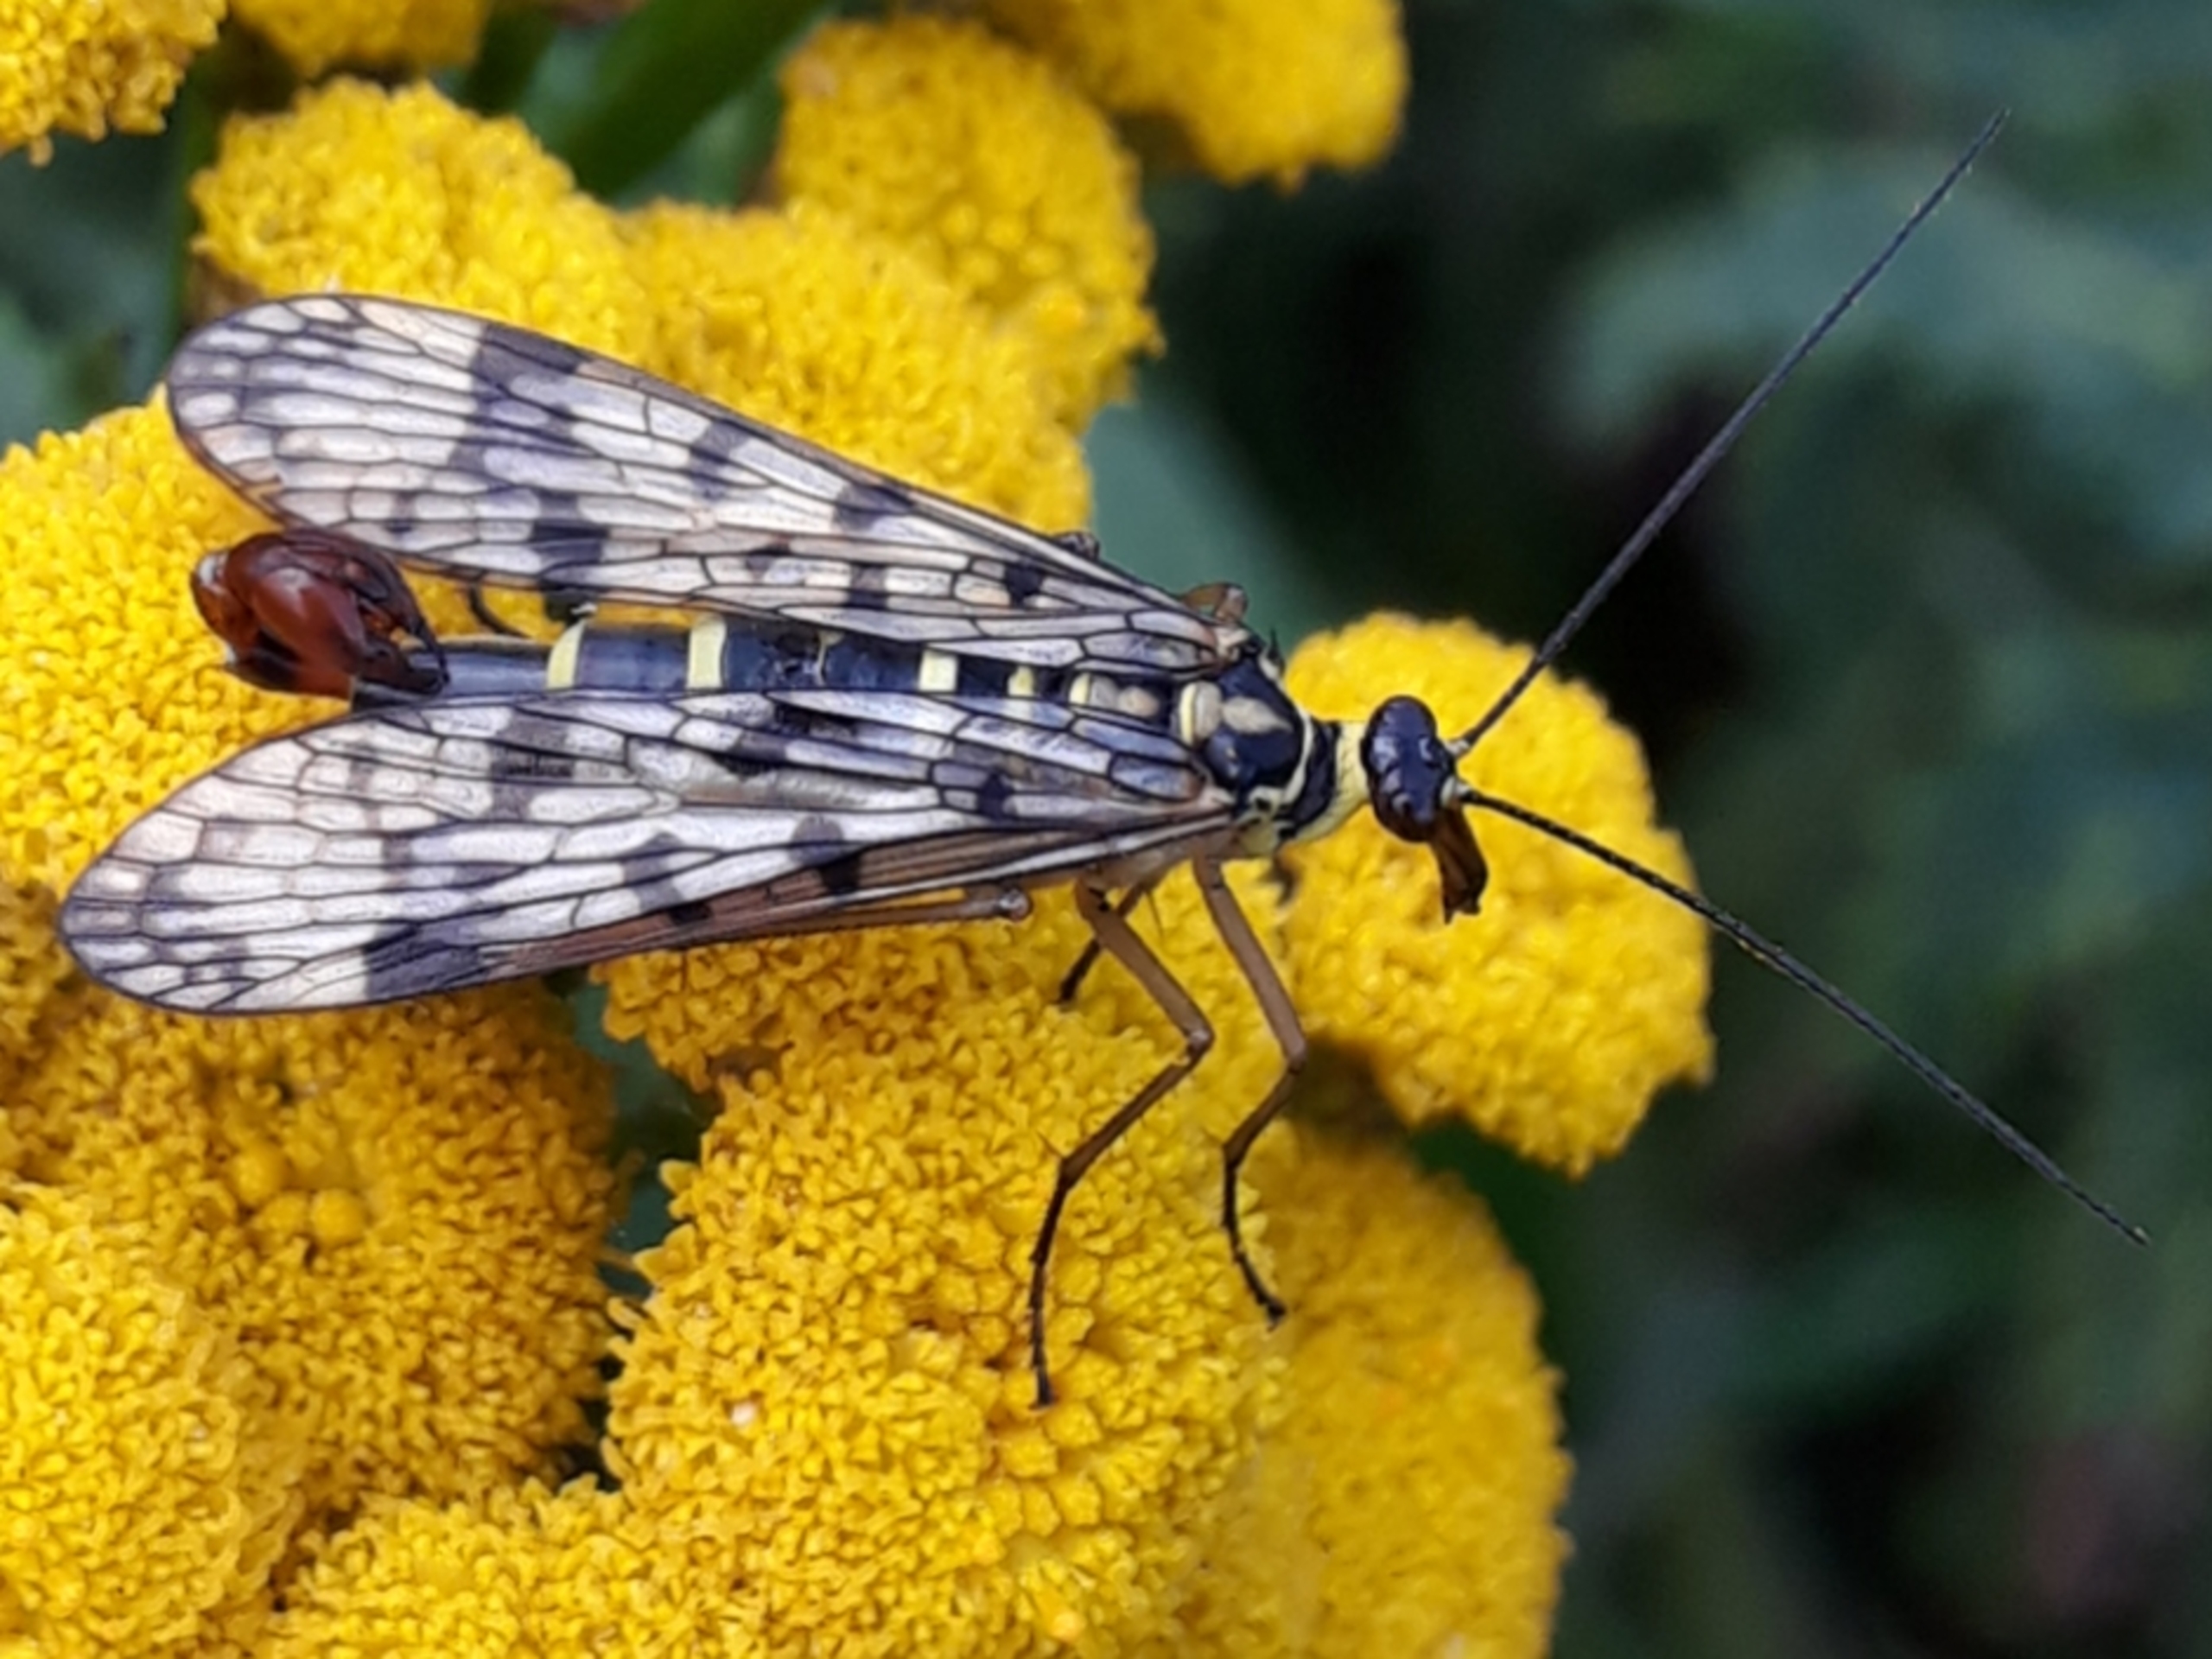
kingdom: Animalia
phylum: Arthropoda
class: Insecta
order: Mecoptera
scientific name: Mecoptera
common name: Skorpionsfluer
